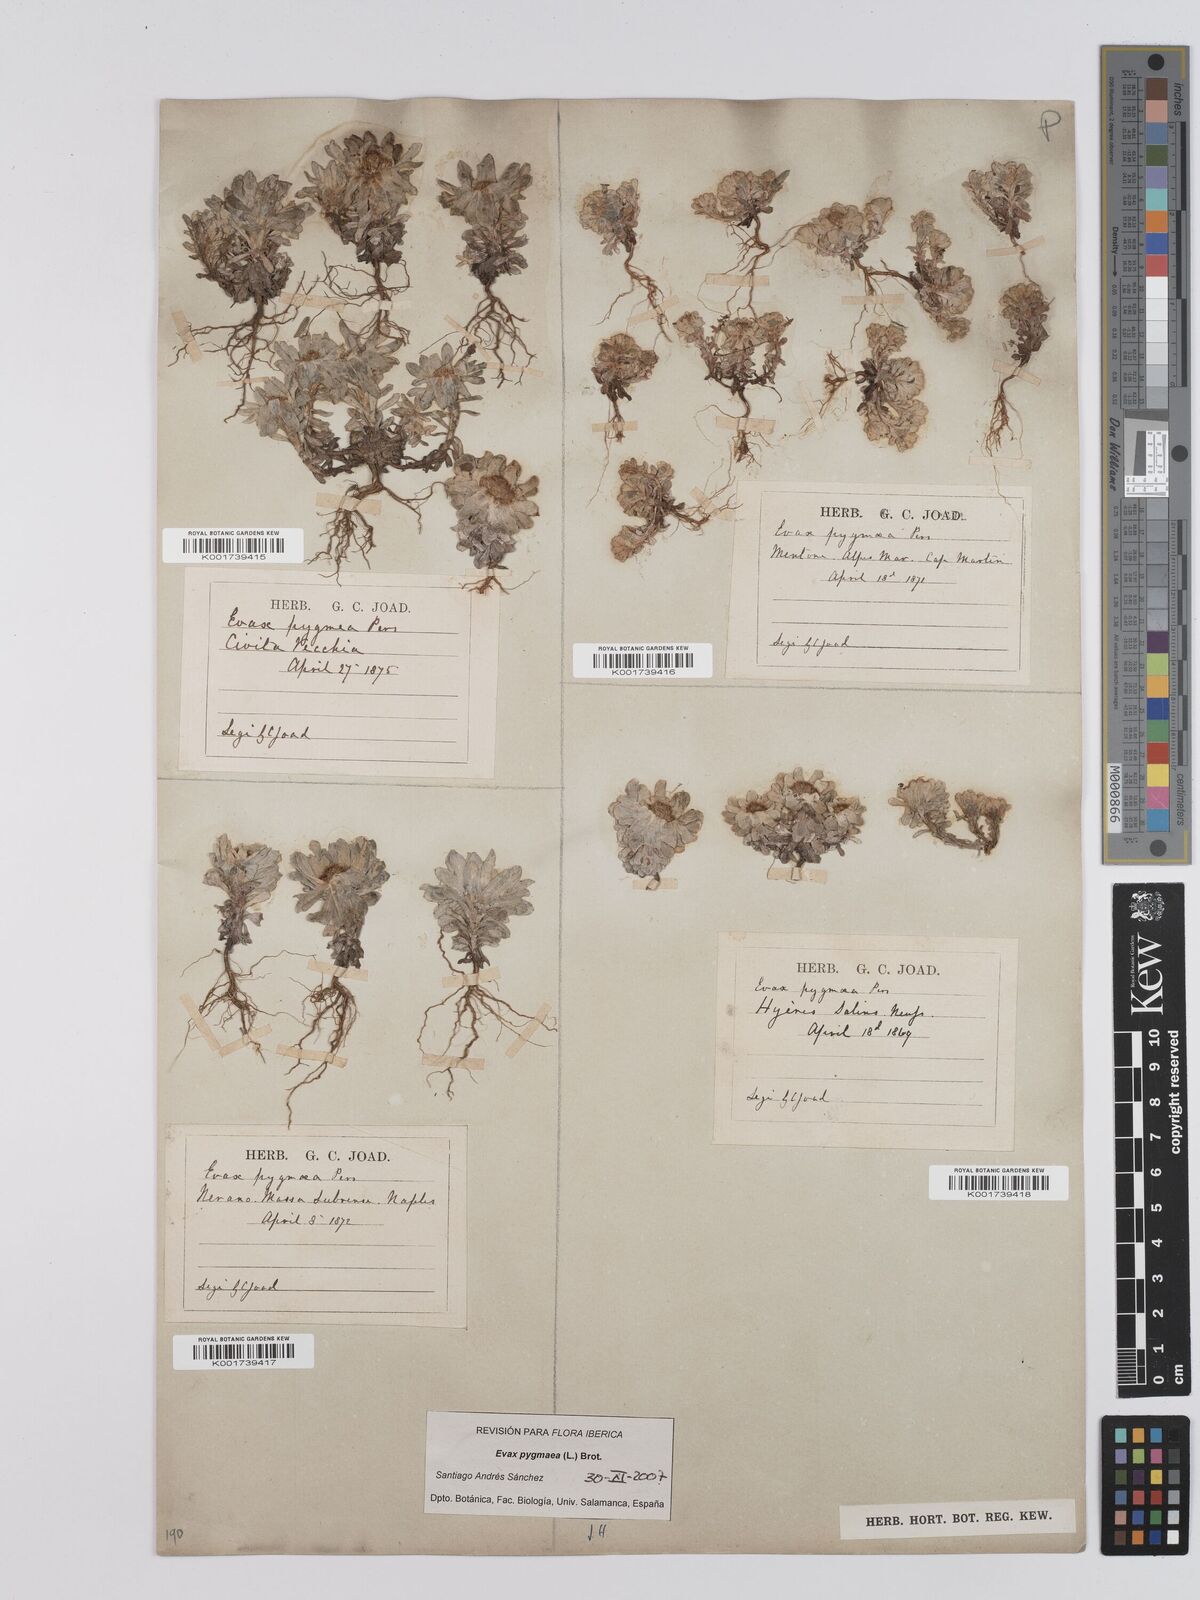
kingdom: Plantae
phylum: Tracheophyta
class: Magnoliopsida
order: Asterales
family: Asteraceae
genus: Filago
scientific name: Filago pygmaea
